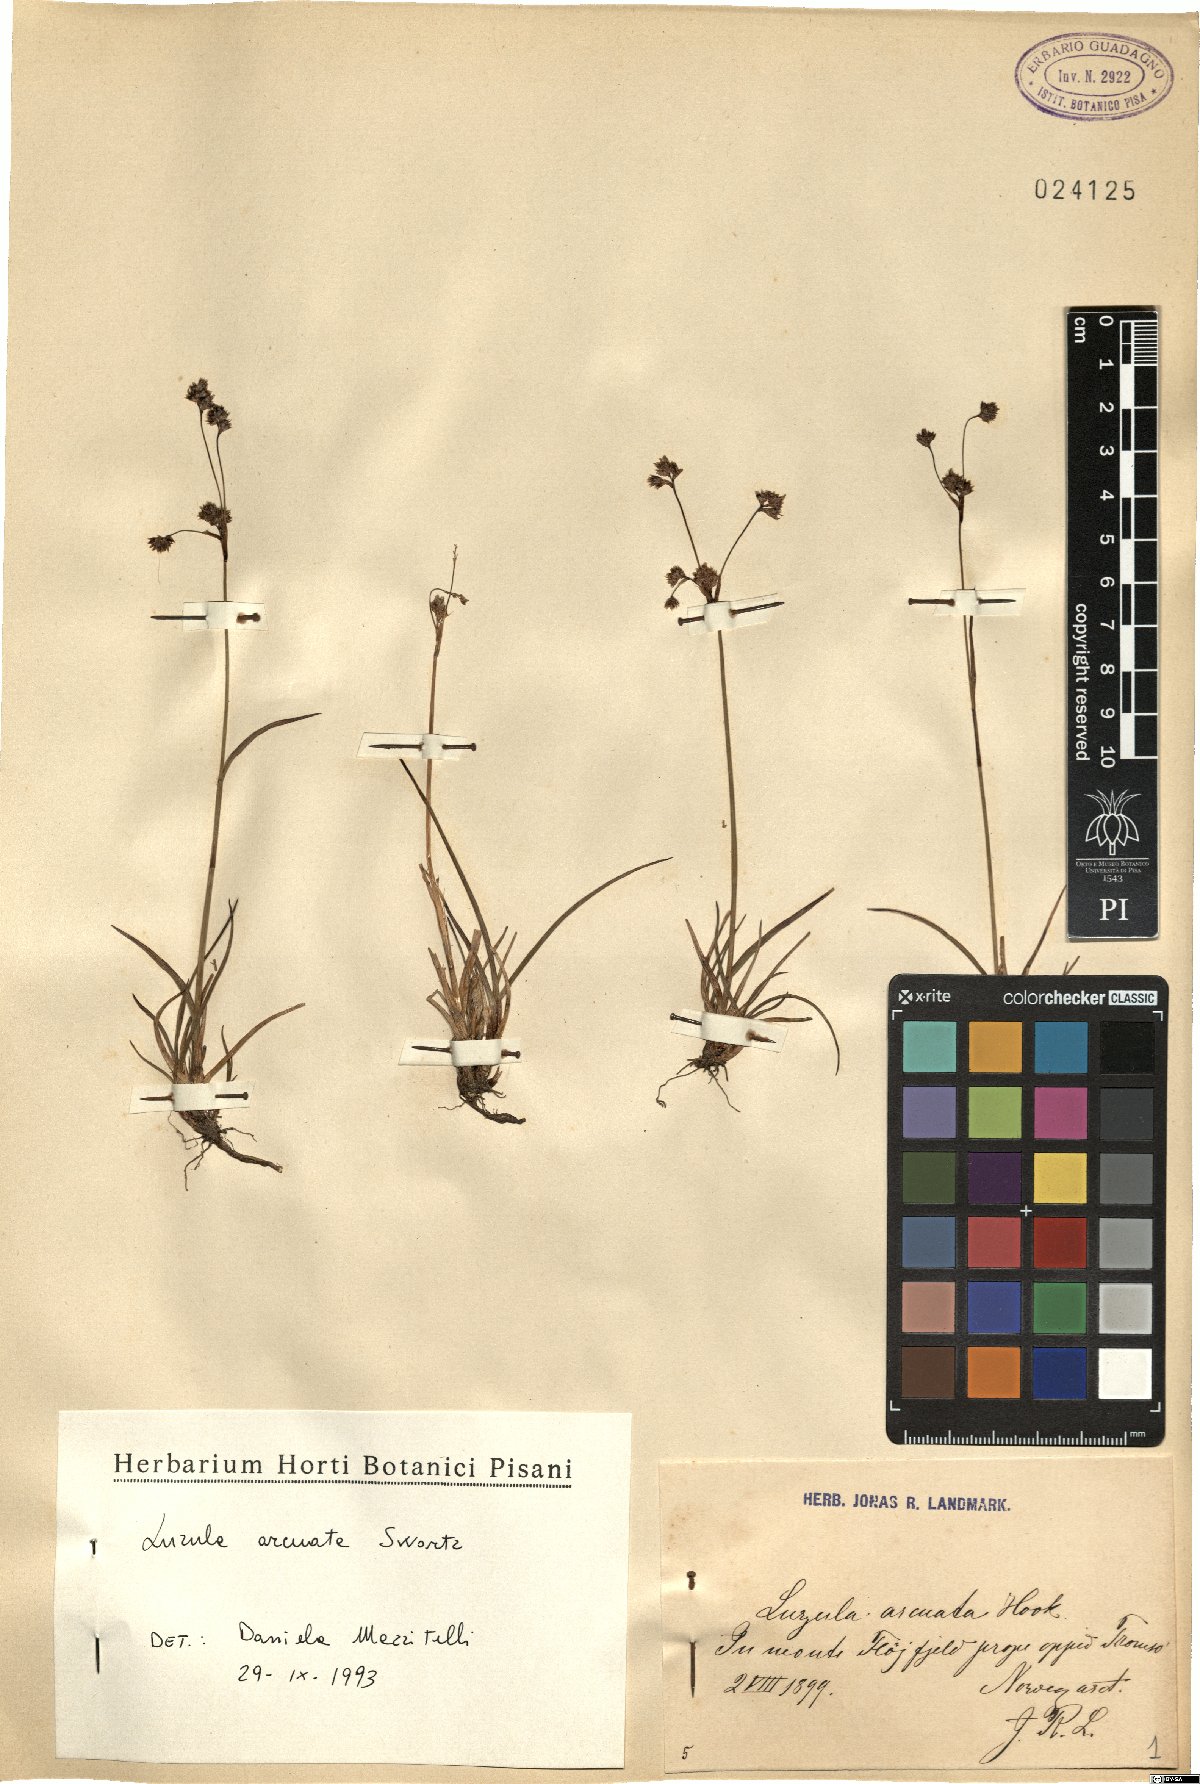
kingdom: Plantae
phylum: Tracheophyta
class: Liliopsida
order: Poales
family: Juncaceae
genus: Luzula
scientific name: Luzula arcuata
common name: Curved wood-rush
